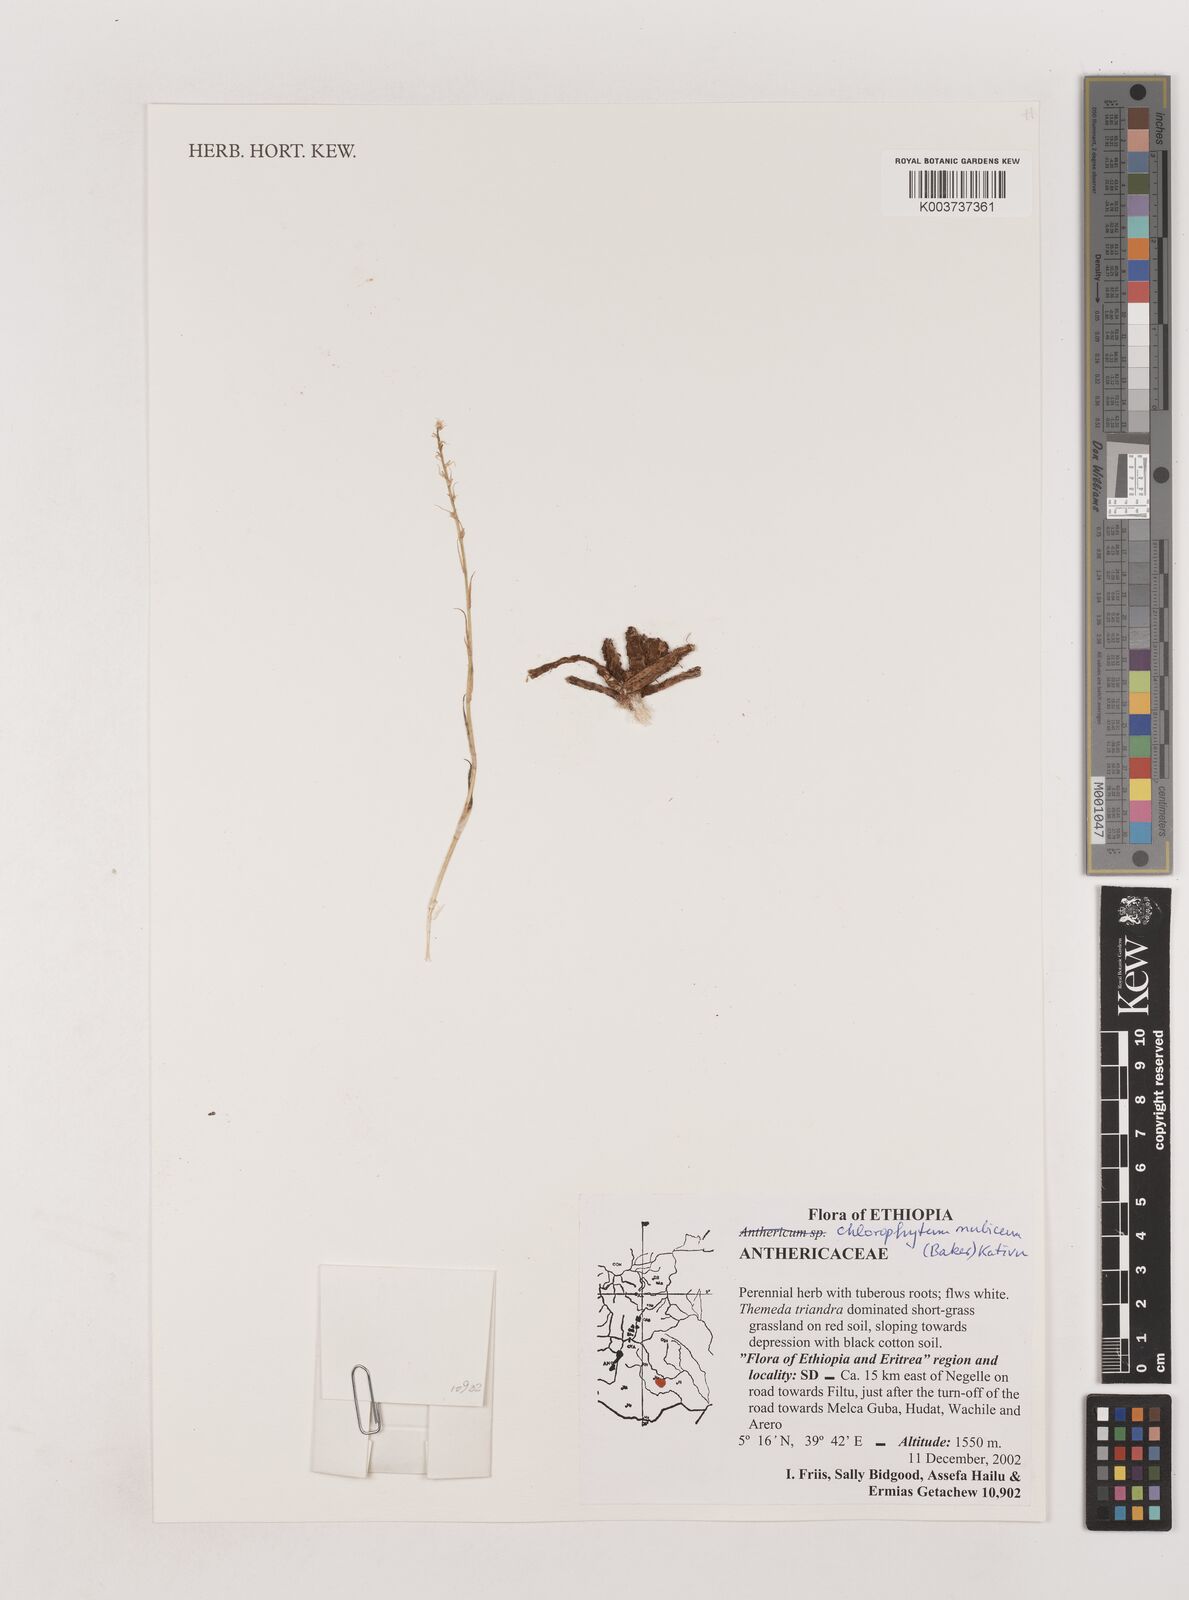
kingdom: Plantae
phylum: Tracheophyta
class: Liliopsida
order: Asparagales
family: Asparagaceae
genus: Chlorophytum
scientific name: Chlorophytum nubicum
